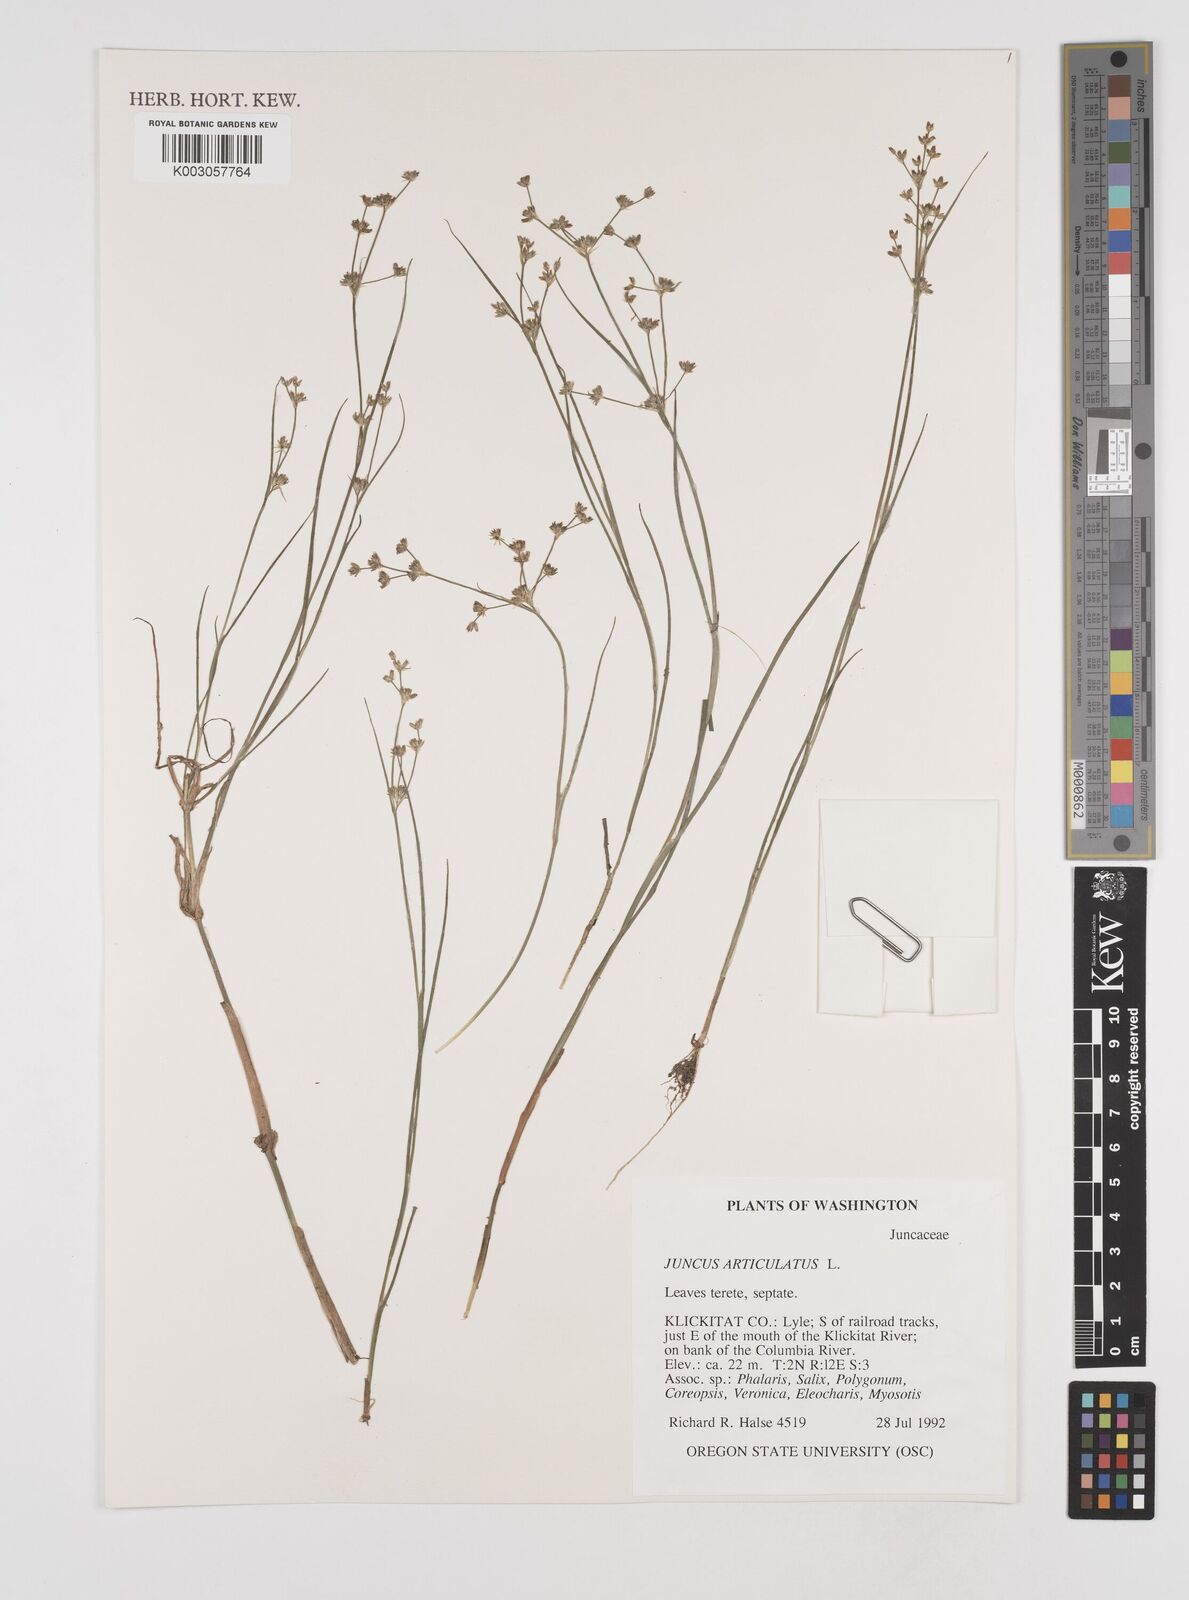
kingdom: Plantae
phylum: Tracheophyta
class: Liliopsida
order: Poales
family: Juncaceae
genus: Juncus
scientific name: Juncus articulatus
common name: Jointed rush
